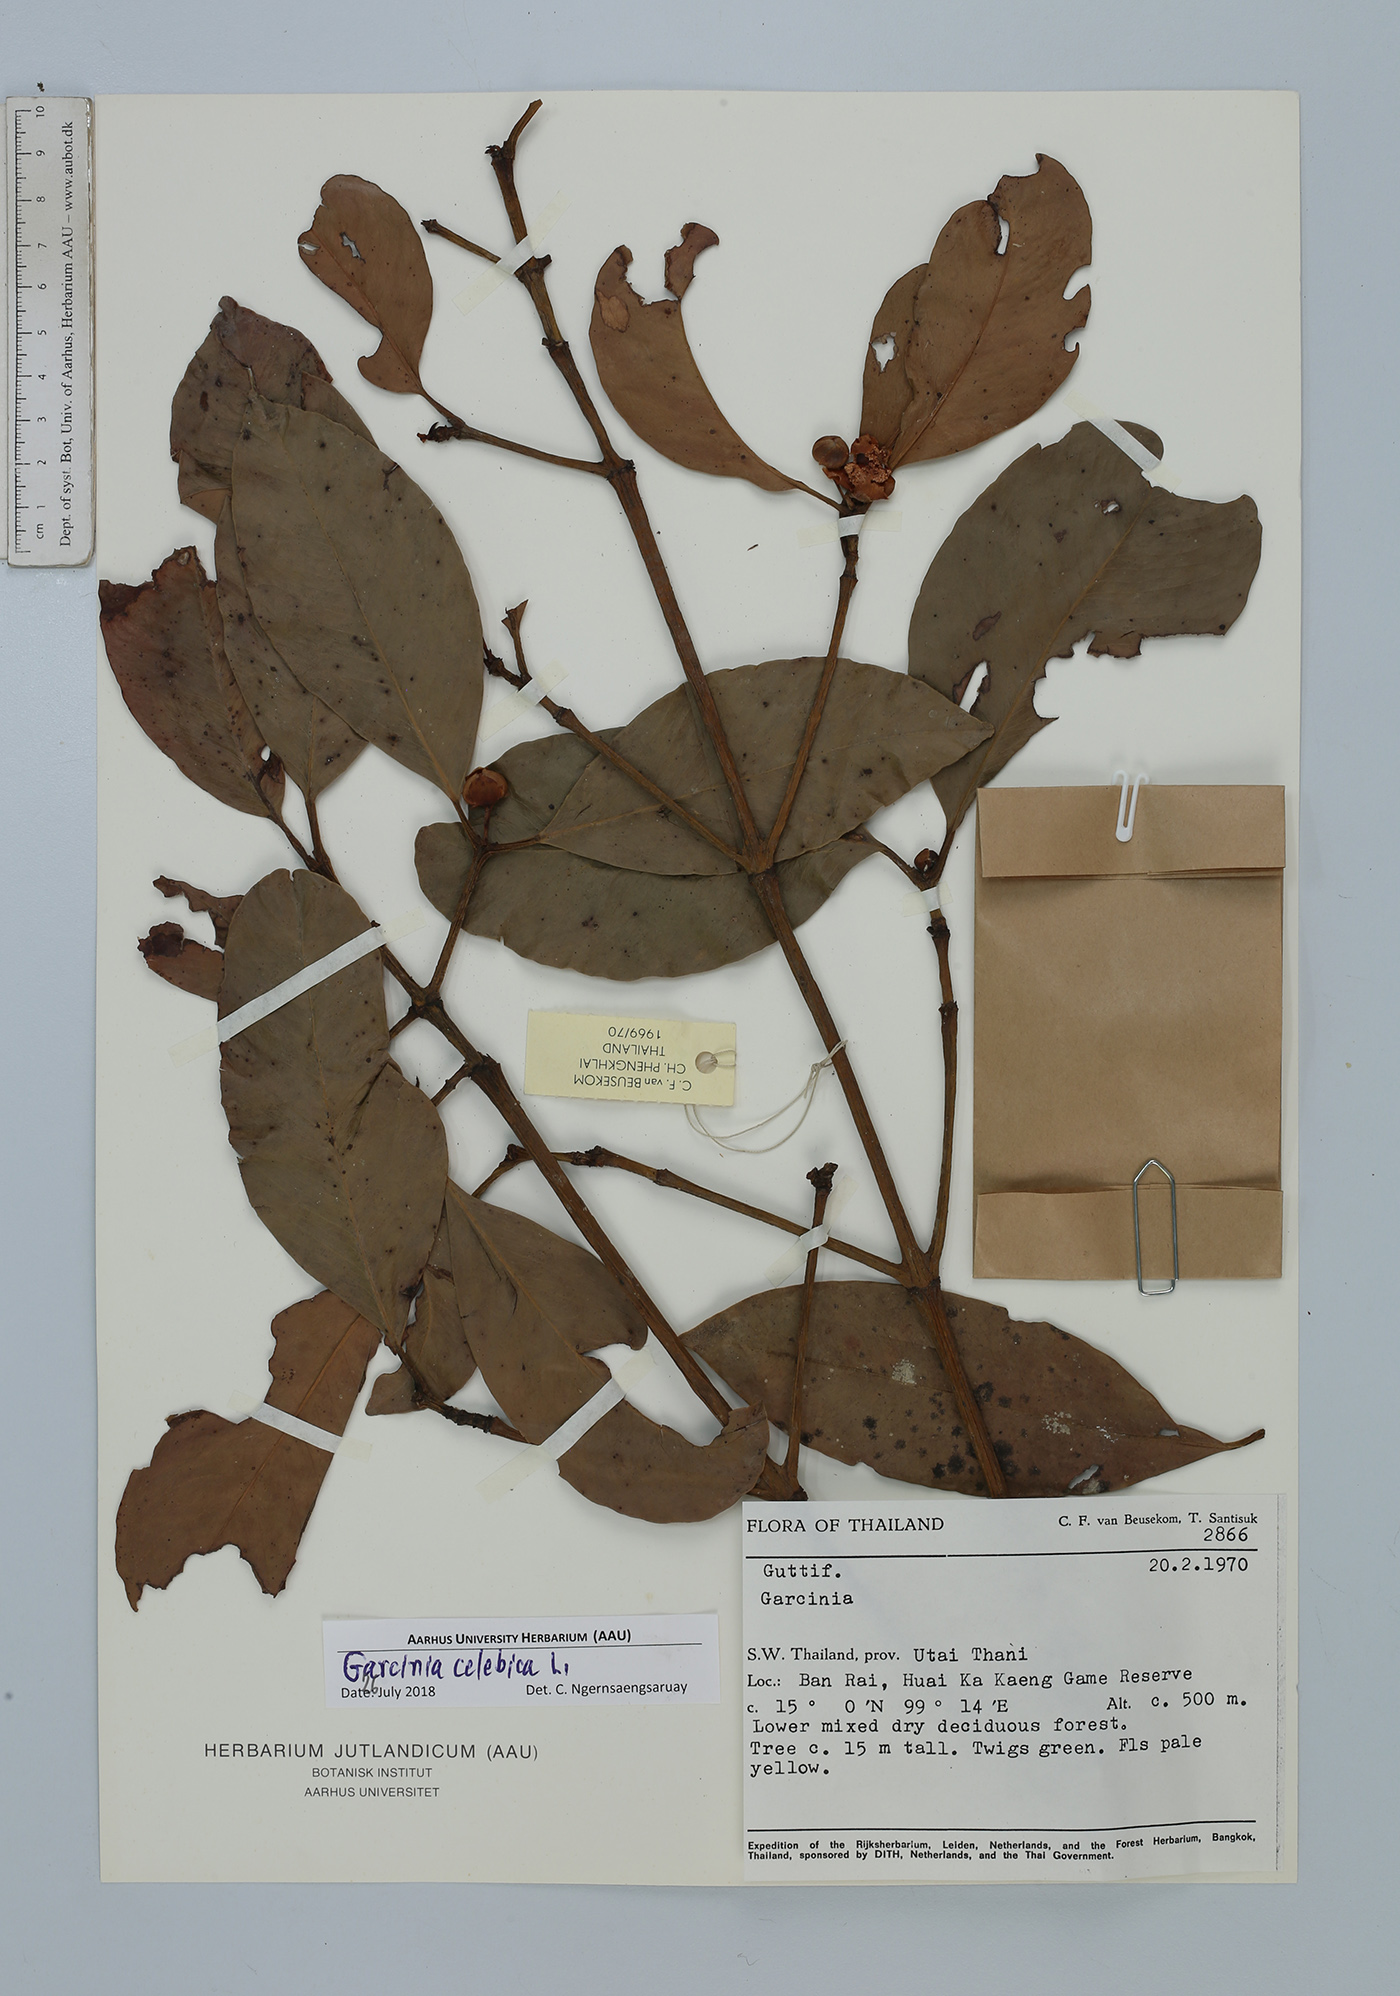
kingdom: Plantae
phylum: Tracheophyta
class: Magnoliopsida
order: Malpighiales
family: Clusiaceae
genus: Garcinia
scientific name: Garcinia celebica
